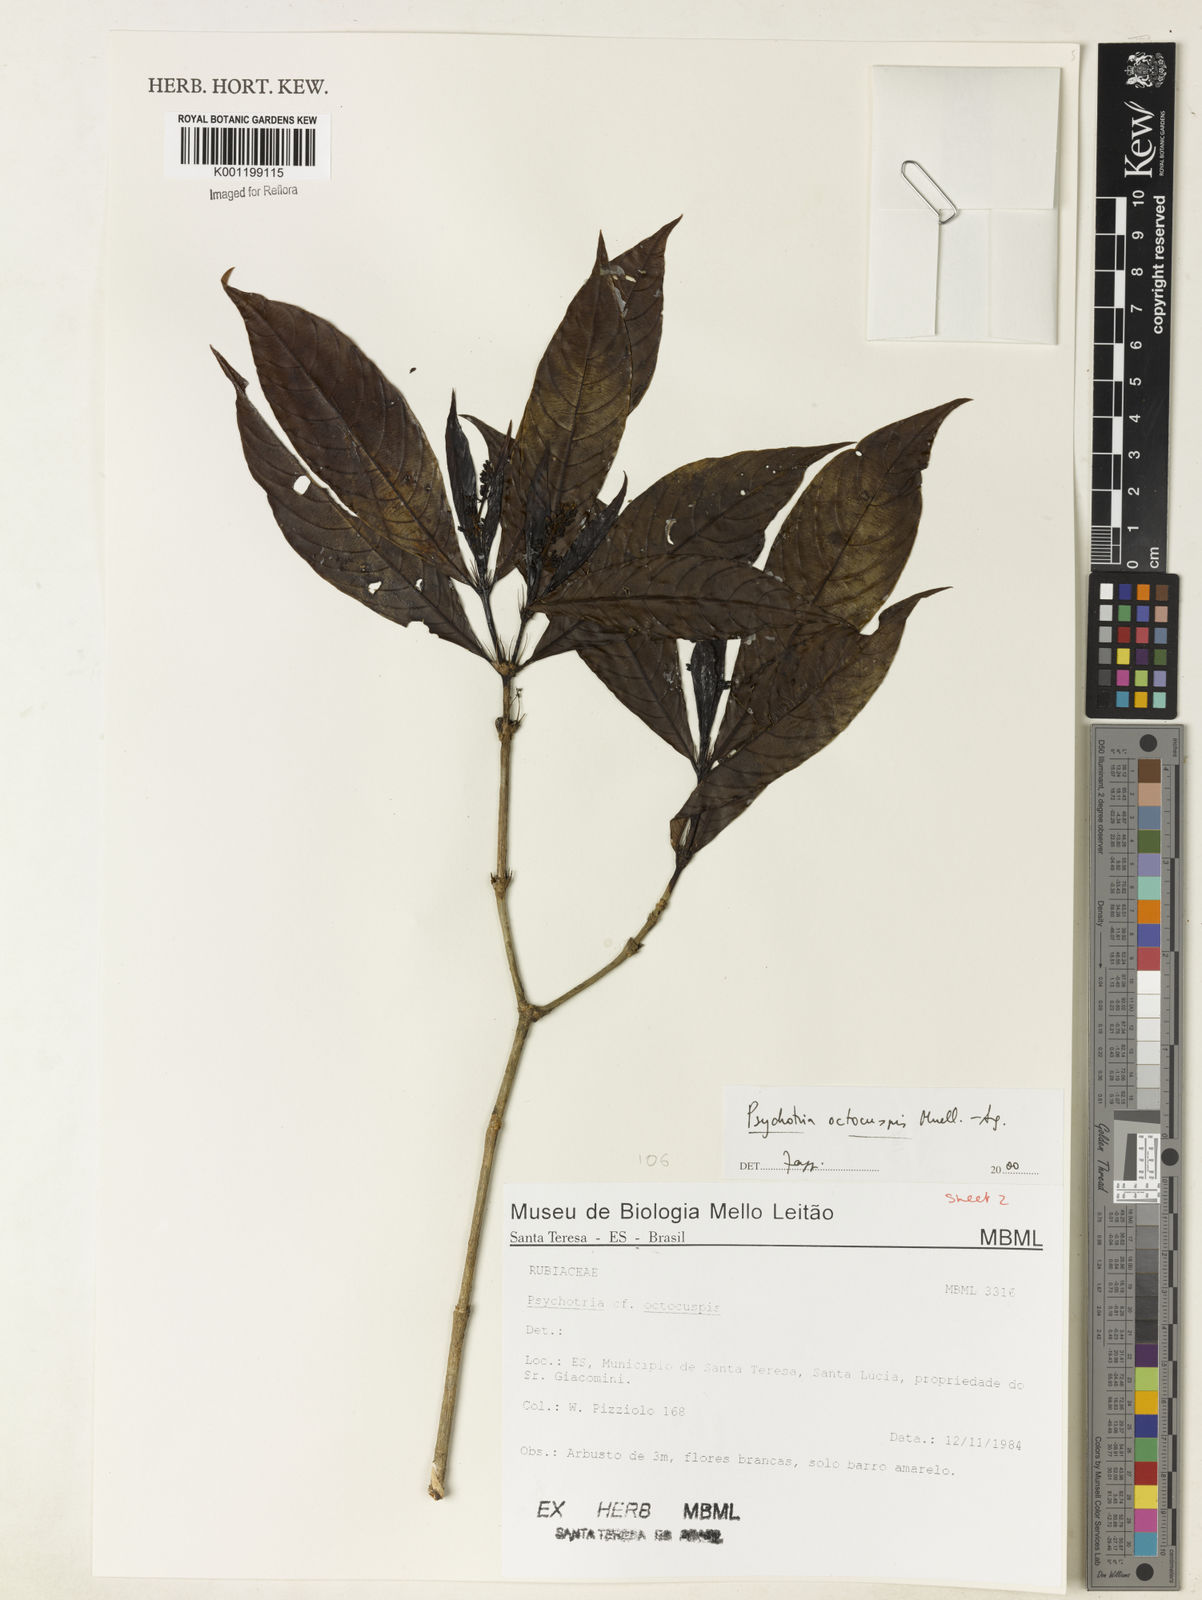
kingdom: Plantae
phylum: Tracheophyta
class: Magnoliopsida
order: Gentianales
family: Rubiaceae
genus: Psychotria
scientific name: Psychotria
